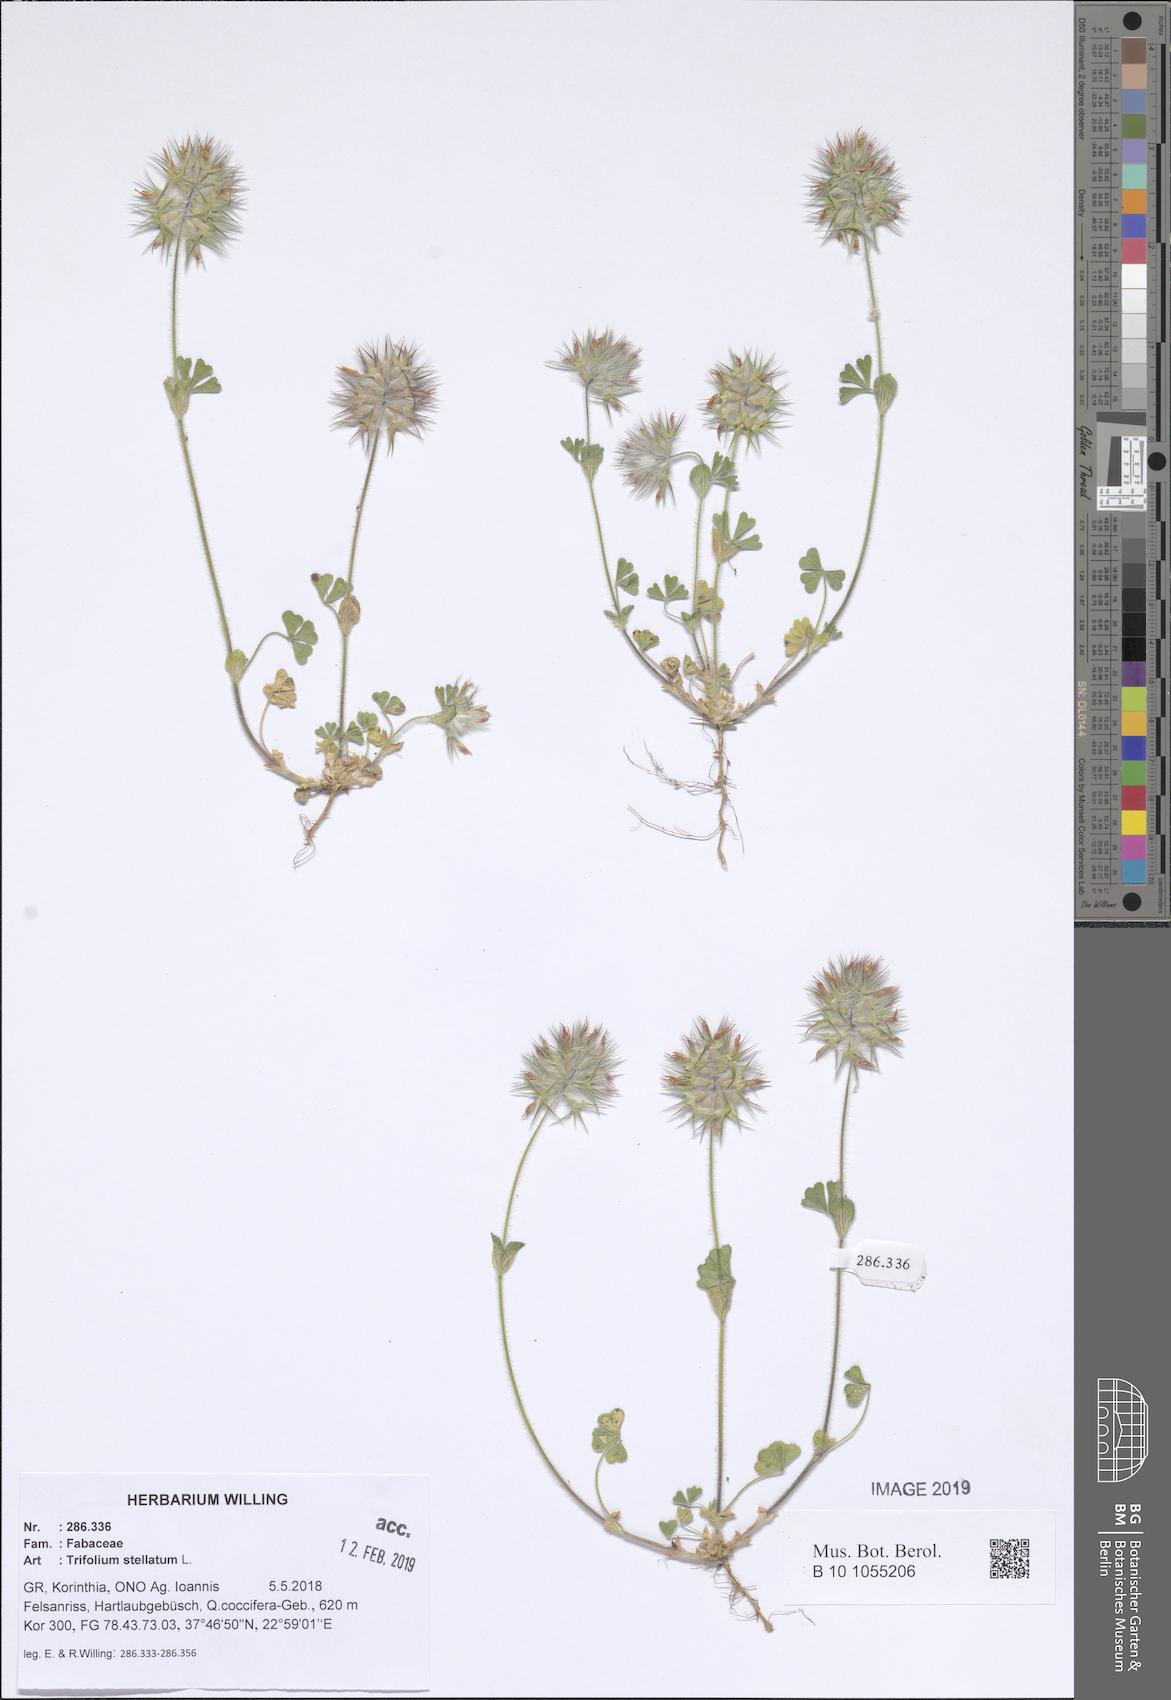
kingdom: Plantae
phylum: Tracheophyta
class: Magnoliopsida
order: Fabales
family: Fabaceae
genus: Trifolium
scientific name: Trifolium stellatum
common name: Starry clover
